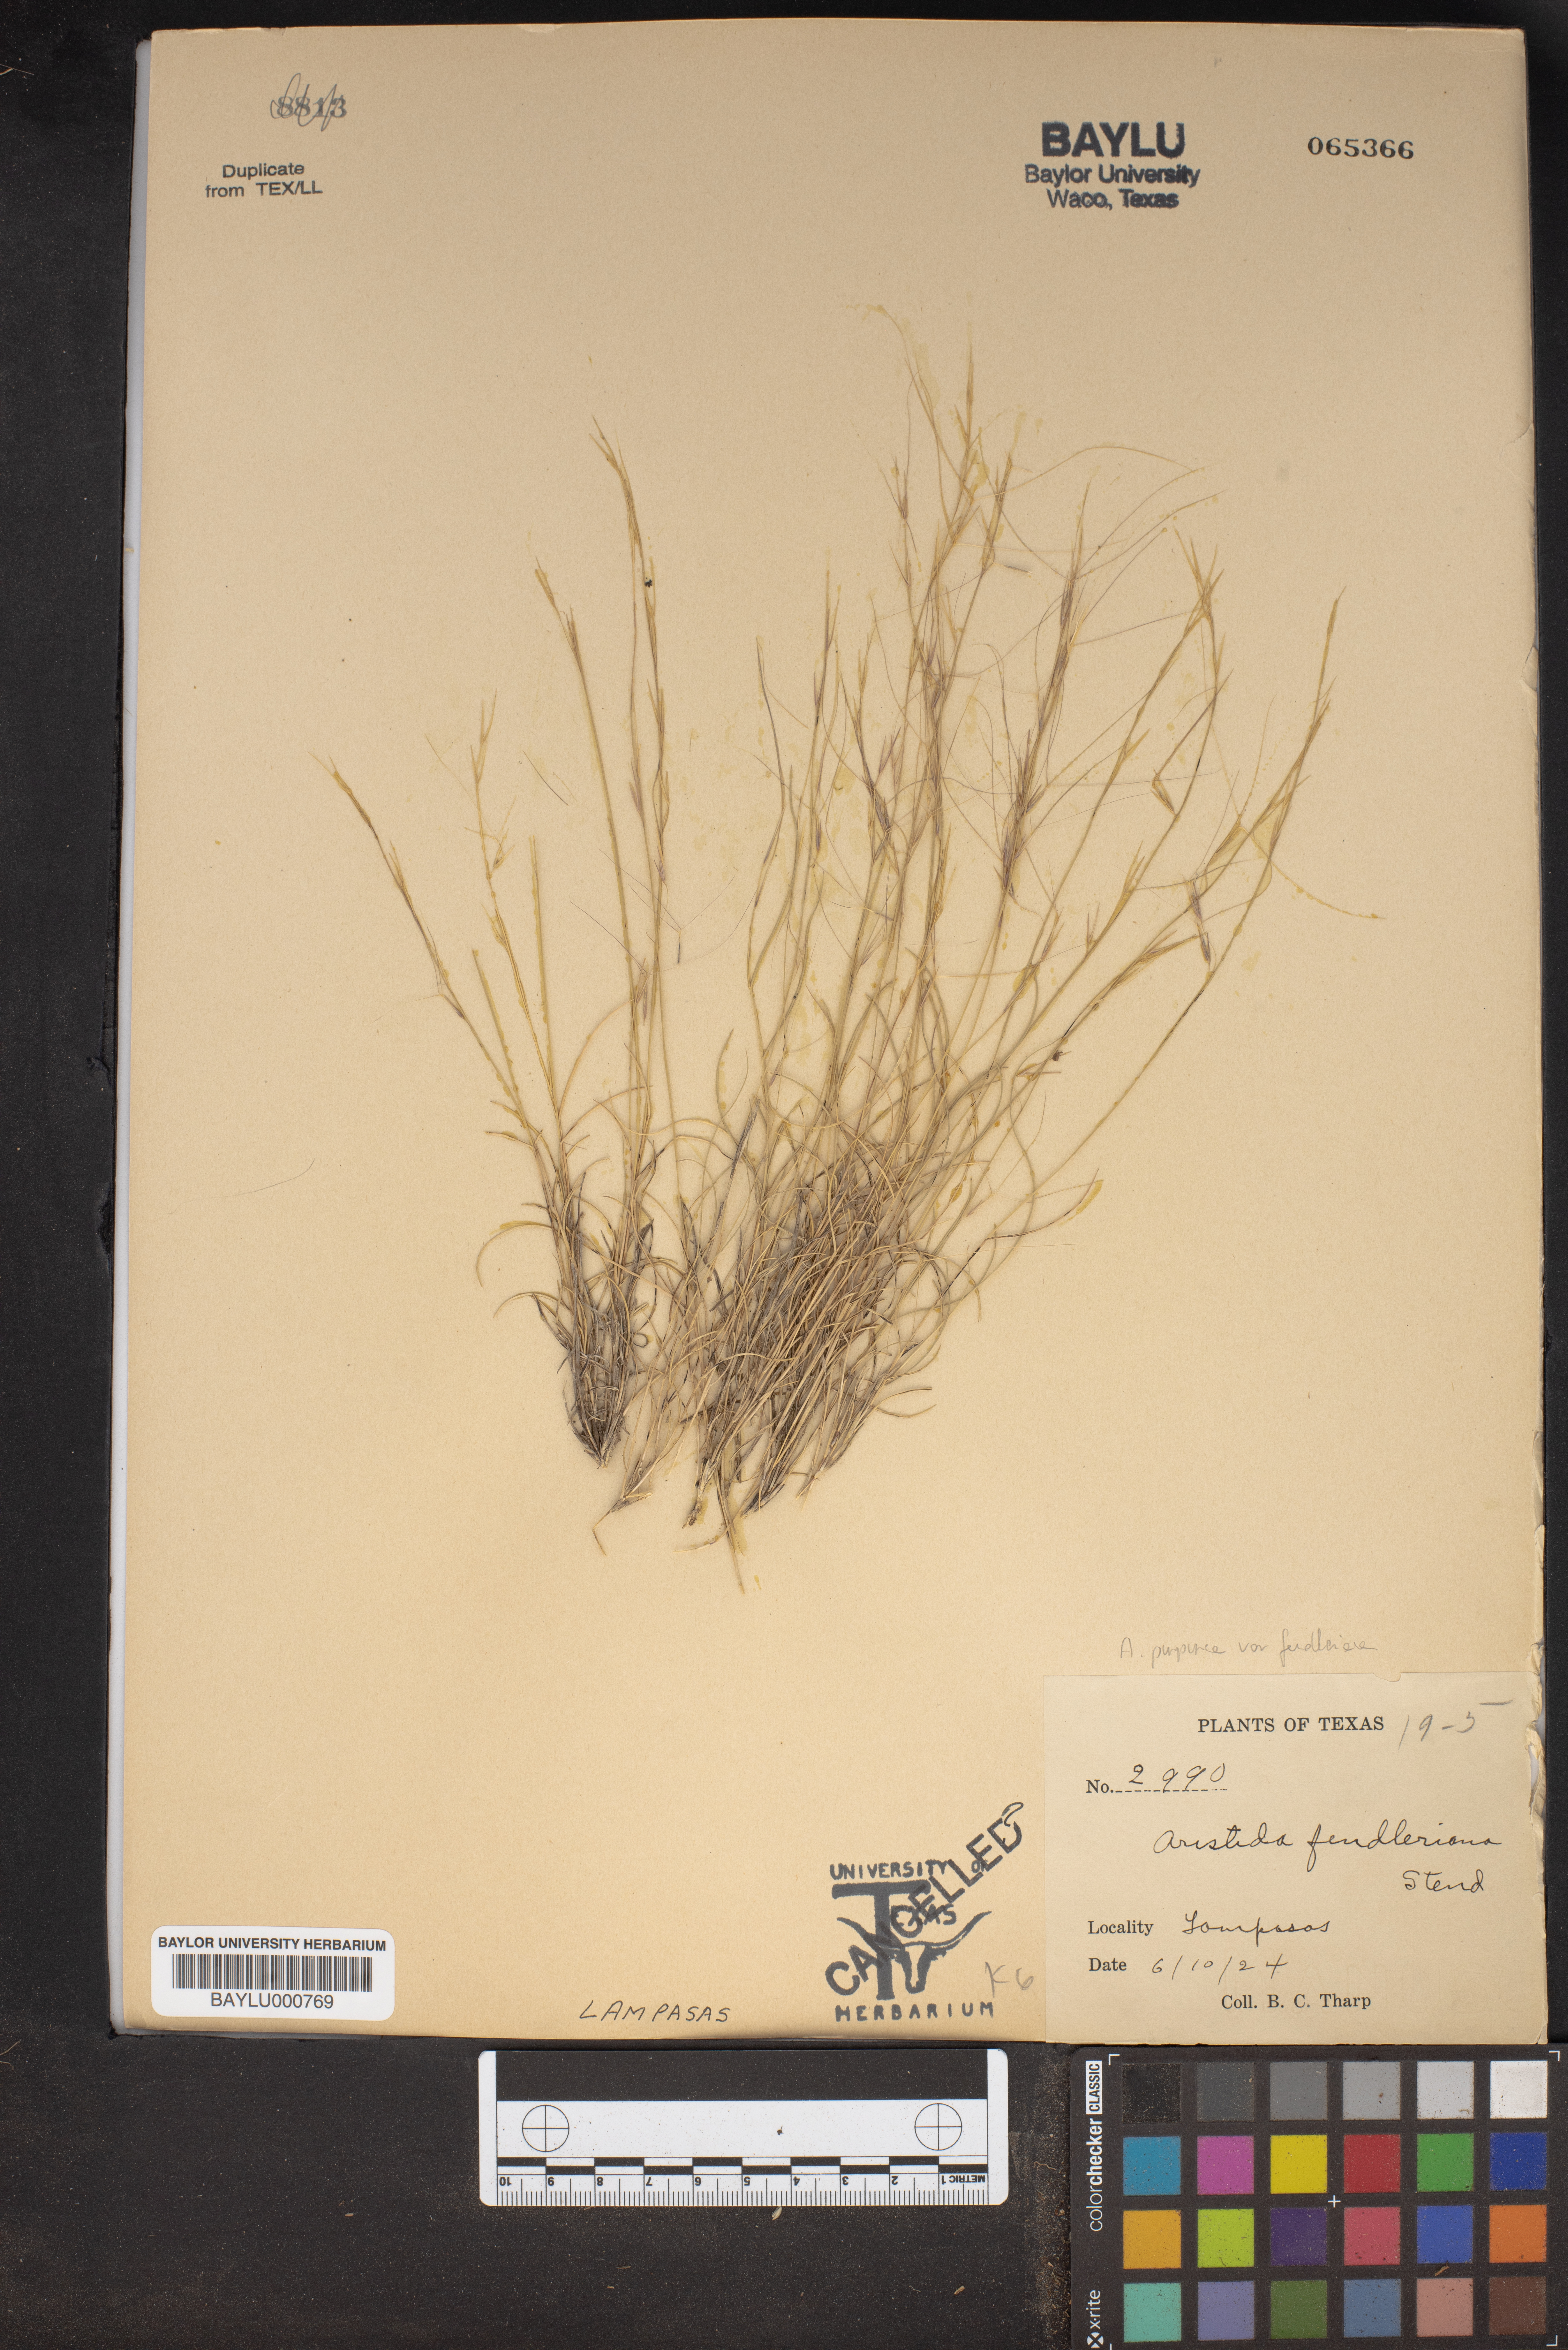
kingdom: Plantae
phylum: Tracheophyta
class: Liliopsida
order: Poales
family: Poaceae
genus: Aristida
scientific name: Aristida fendleriana
